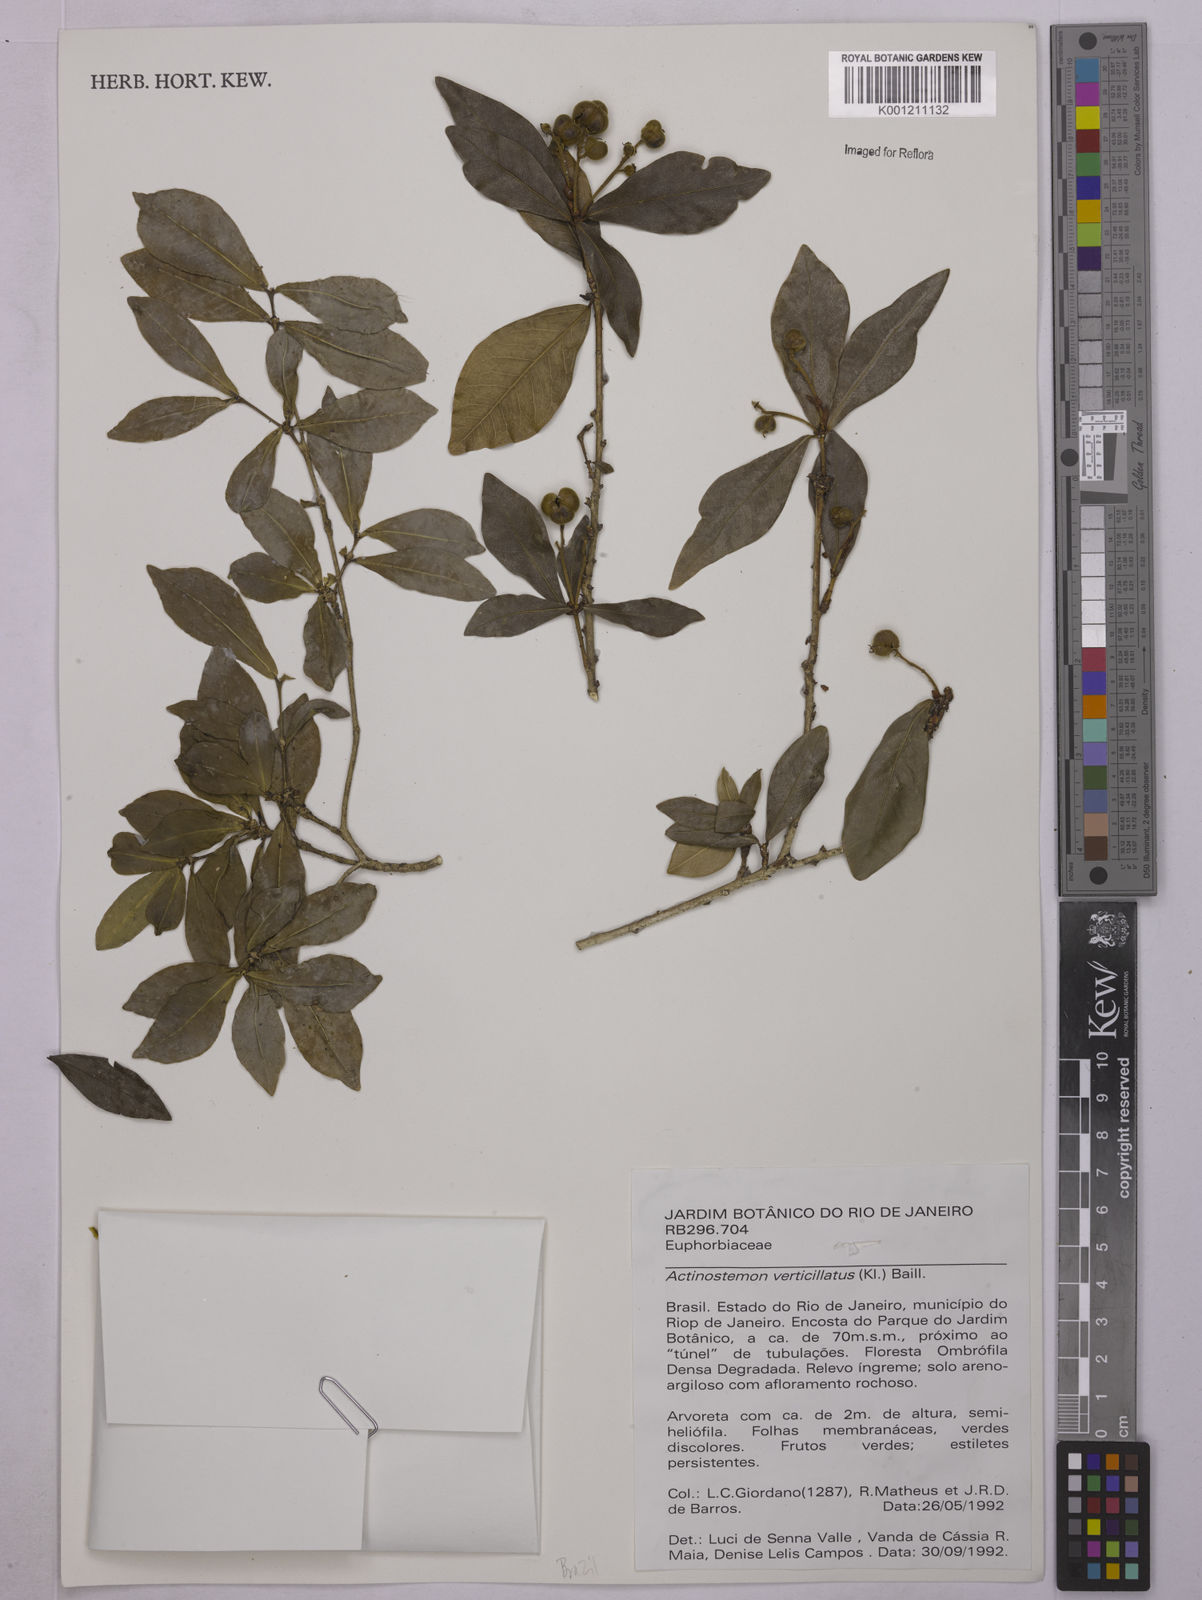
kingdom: Plantae
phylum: Tracheophyta
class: Magnoliopsida
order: Malpighiales
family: Euphorbiaceae
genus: Actinostemon
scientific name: Actinostemon verticillatus
